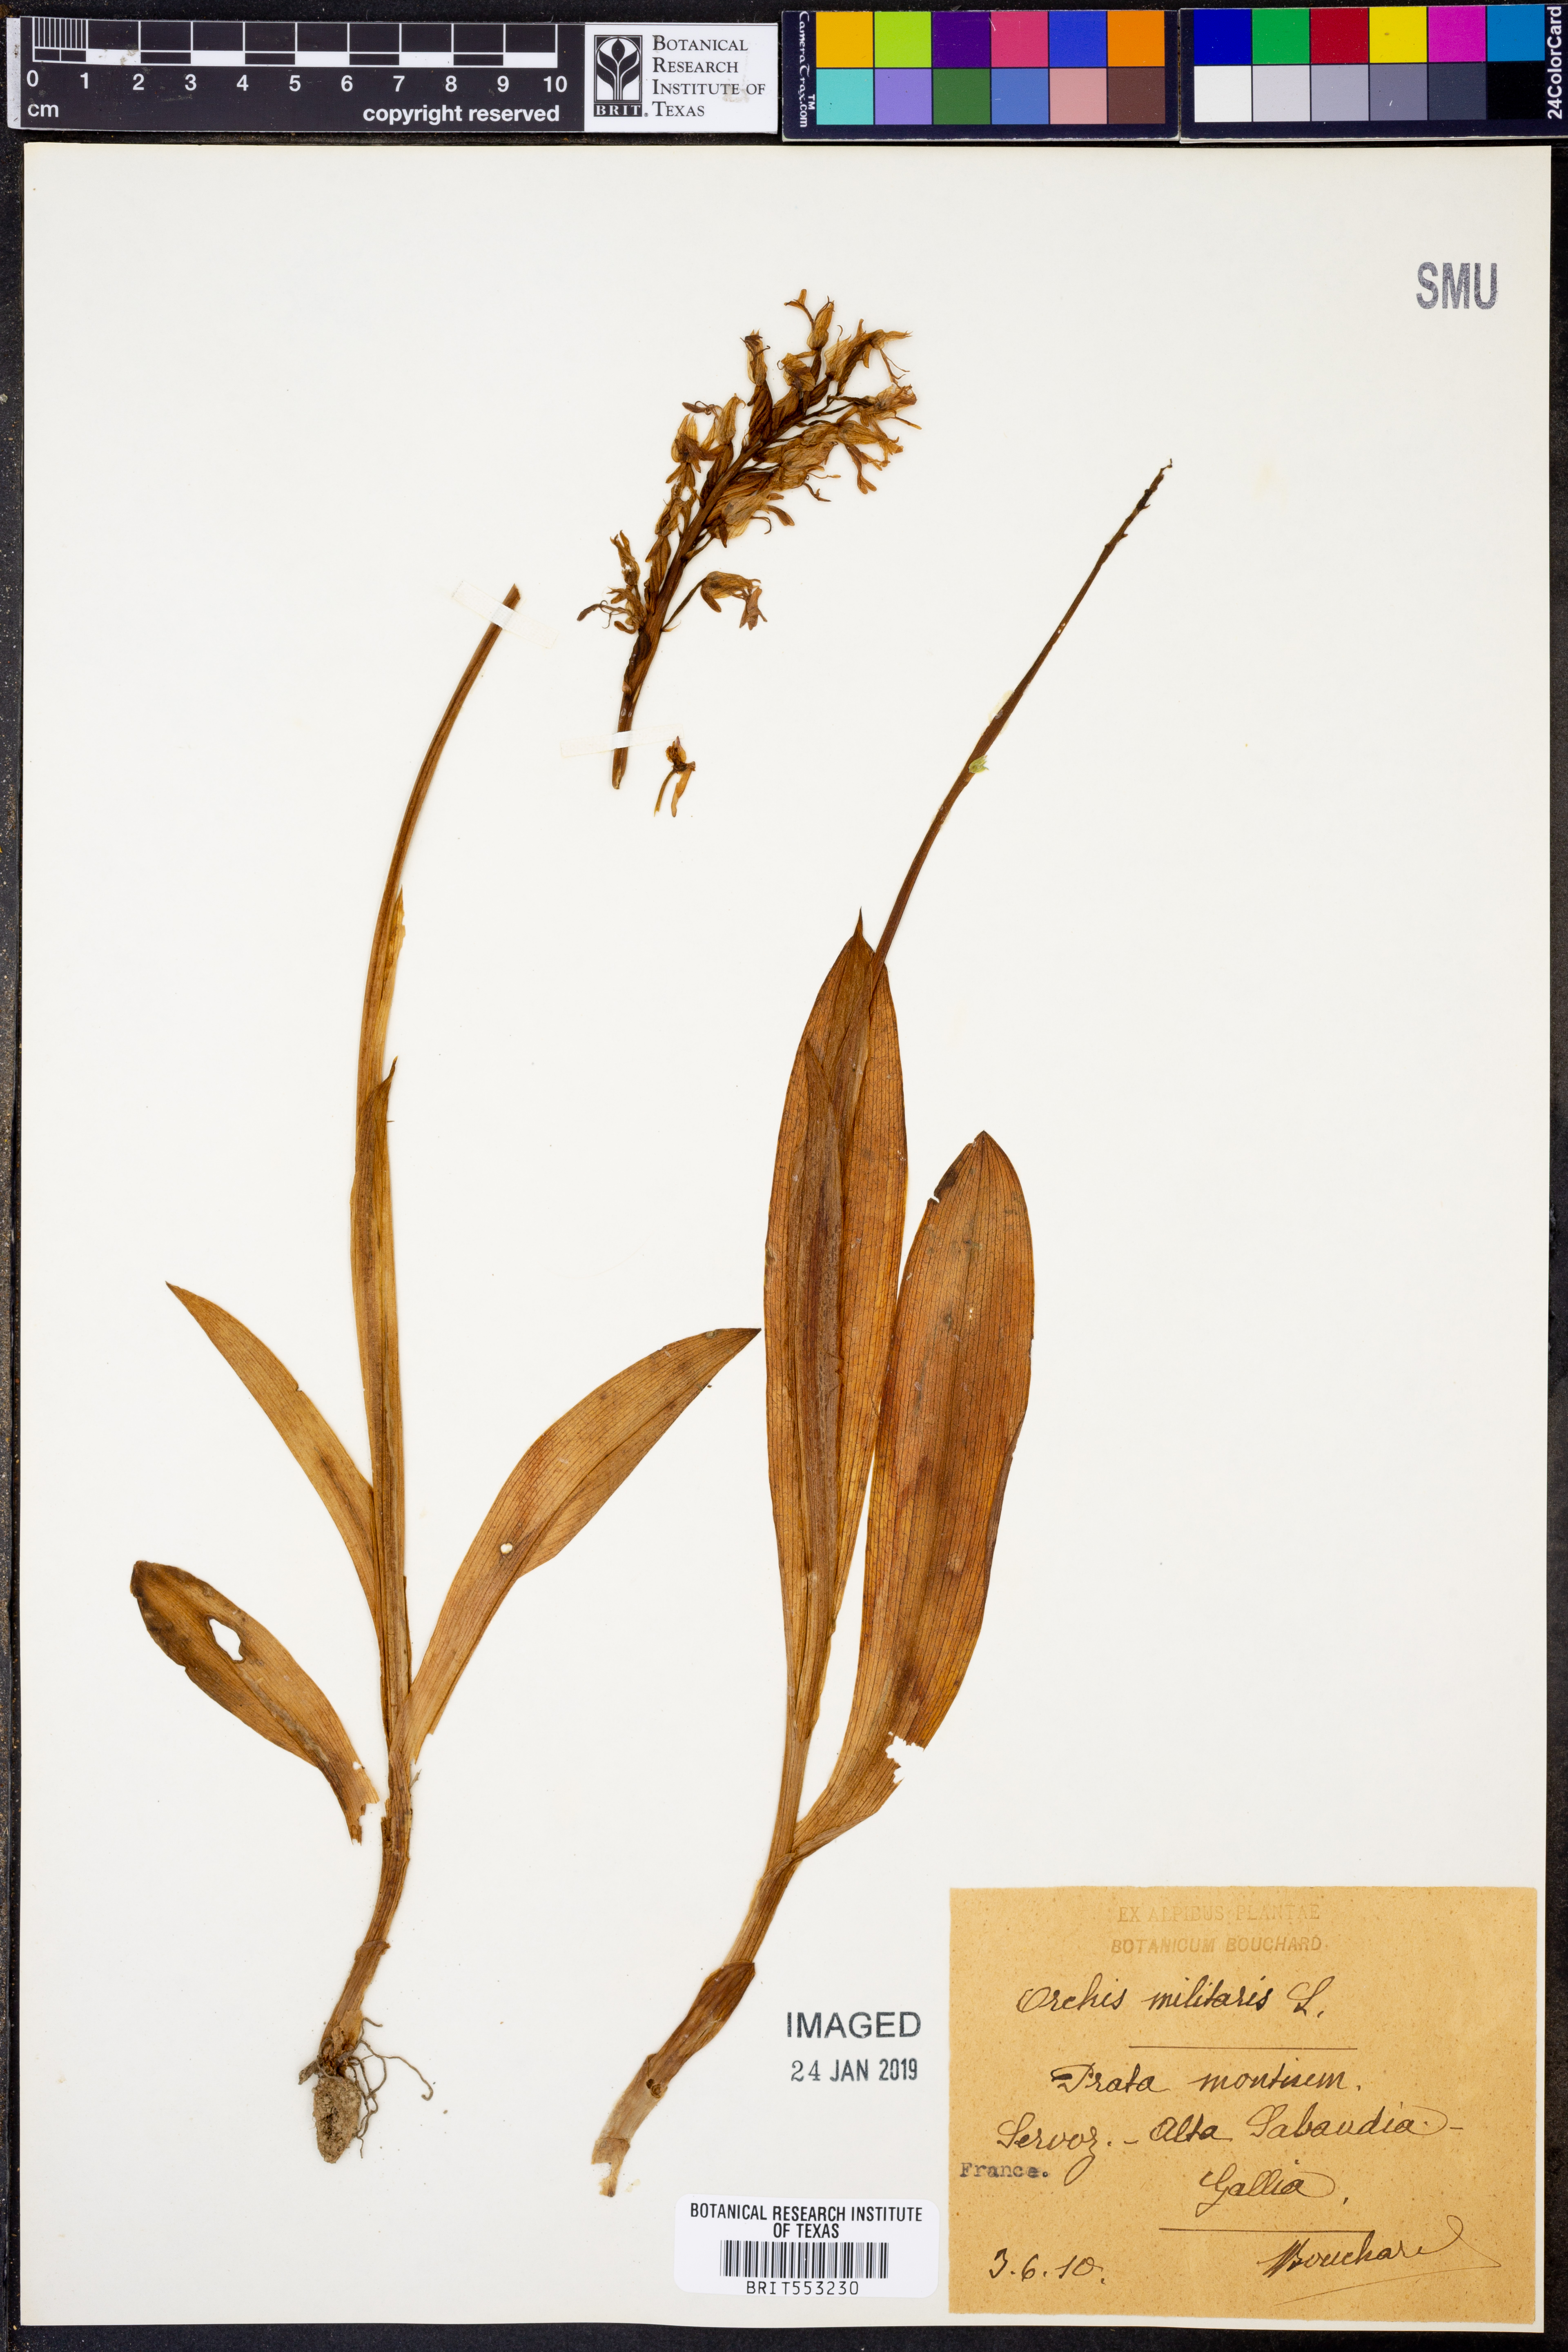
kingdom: Plantae
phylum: Tracheophyta
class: Liliopsida
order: Asparagales
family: Orchidaceae
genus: Orchis
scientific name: Orchis militaris
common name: Military orchid
